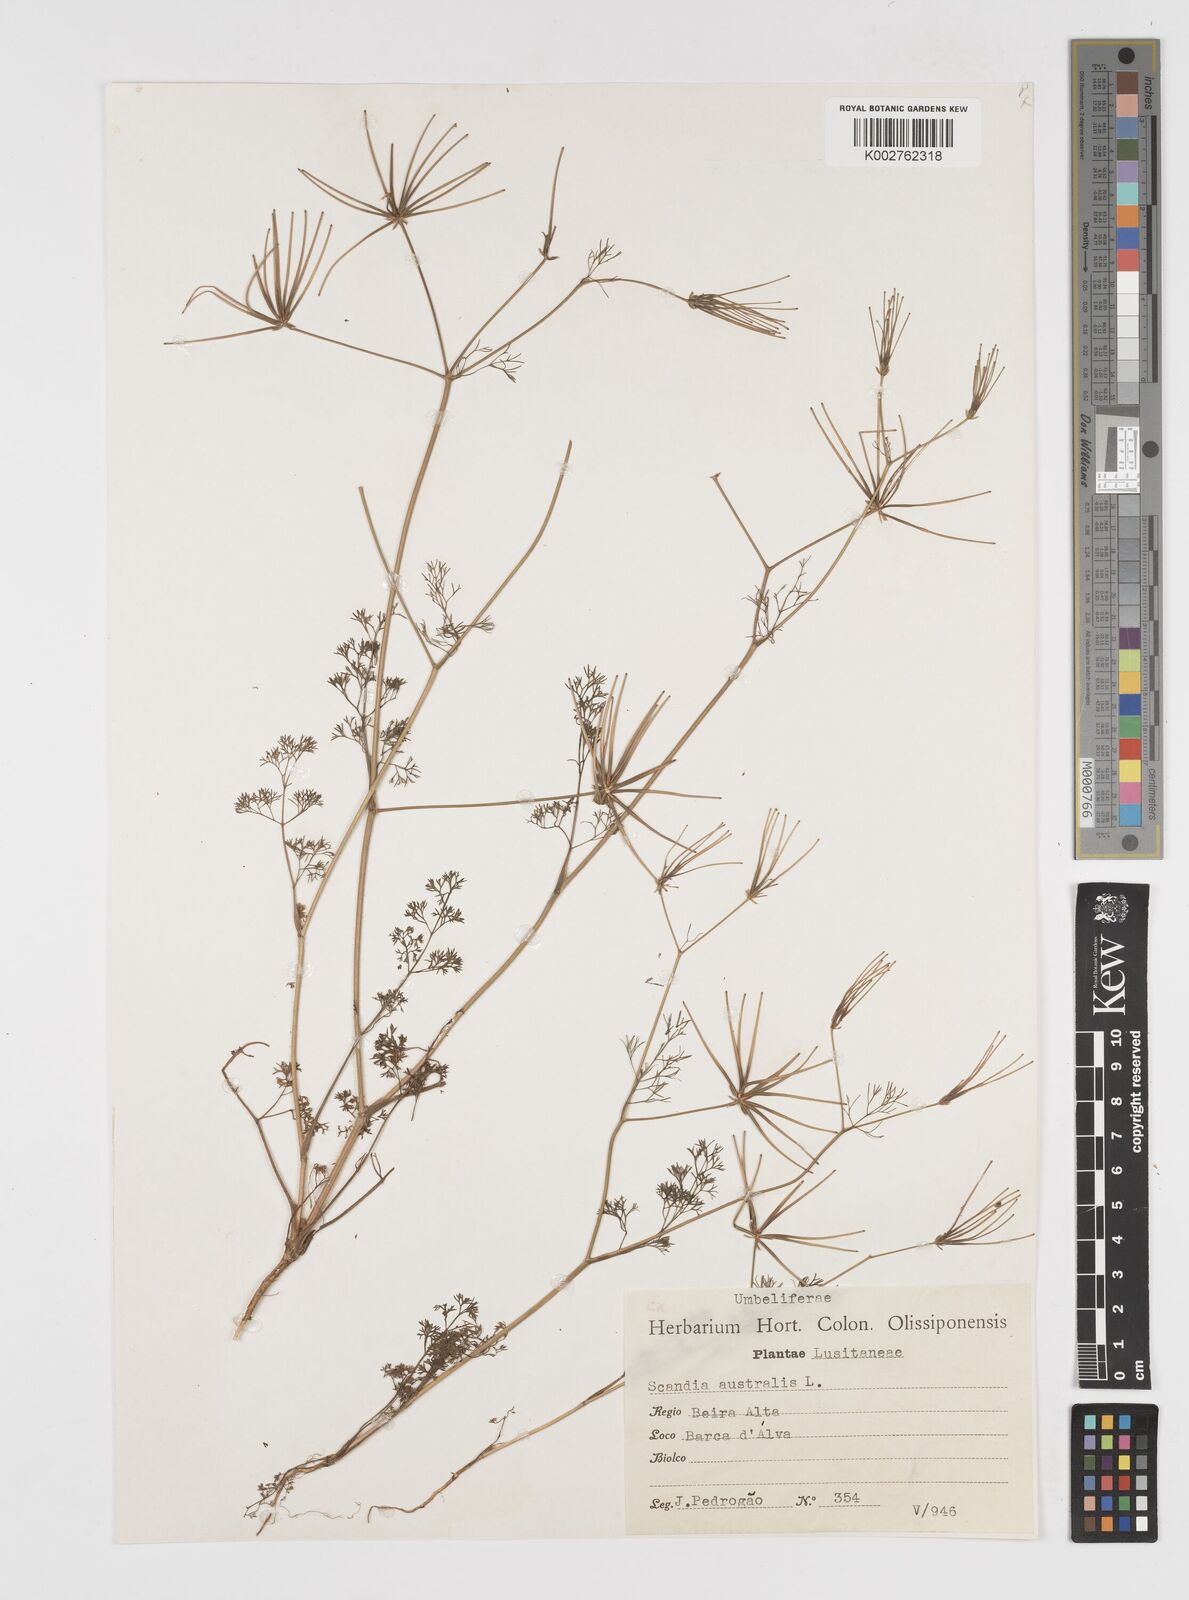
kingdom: Plantae
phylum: Tracheophyta
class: Magnoliopsida
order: Apiales
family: Apiaceae
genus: Scandix
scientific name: Scandix pecten-veneris
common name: Shepherd's-needle
